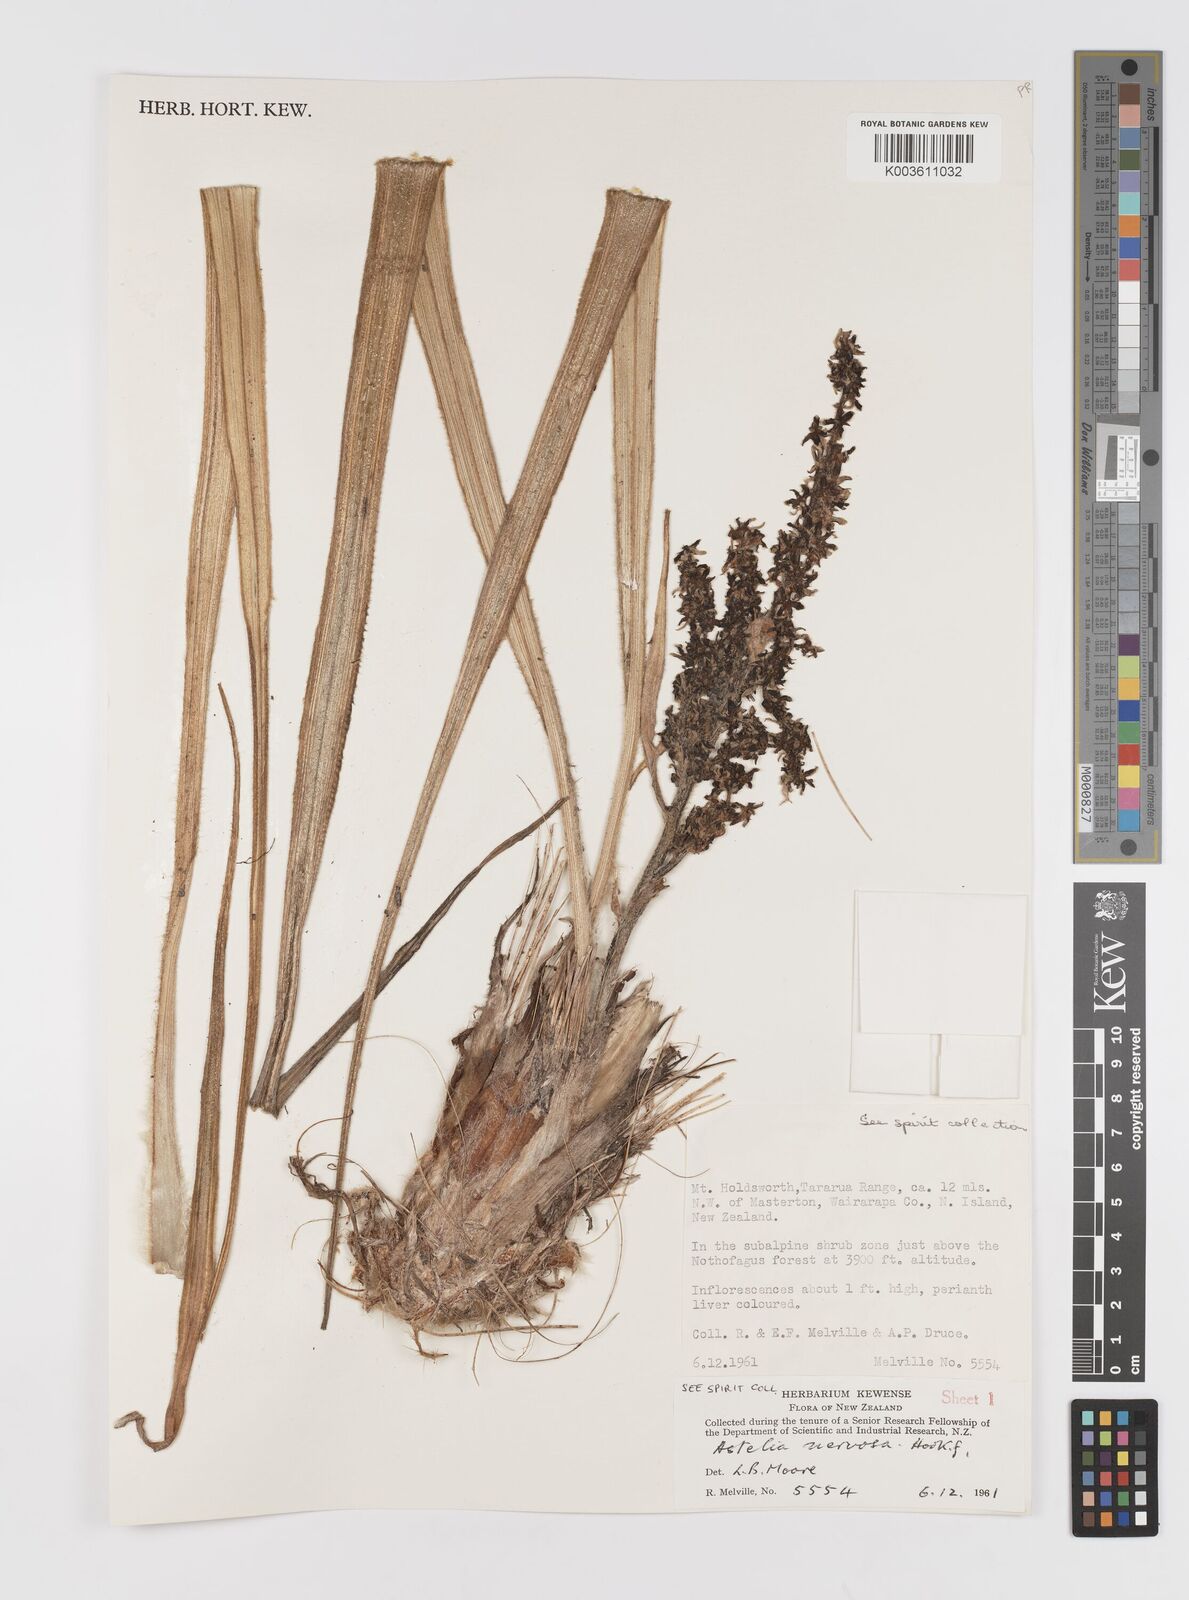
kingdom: Plantae
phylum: Tracheophyta
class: Liliopsida
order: Asparagales
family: Asteliaceae
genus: Astelia
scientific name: Astelia nervosa
